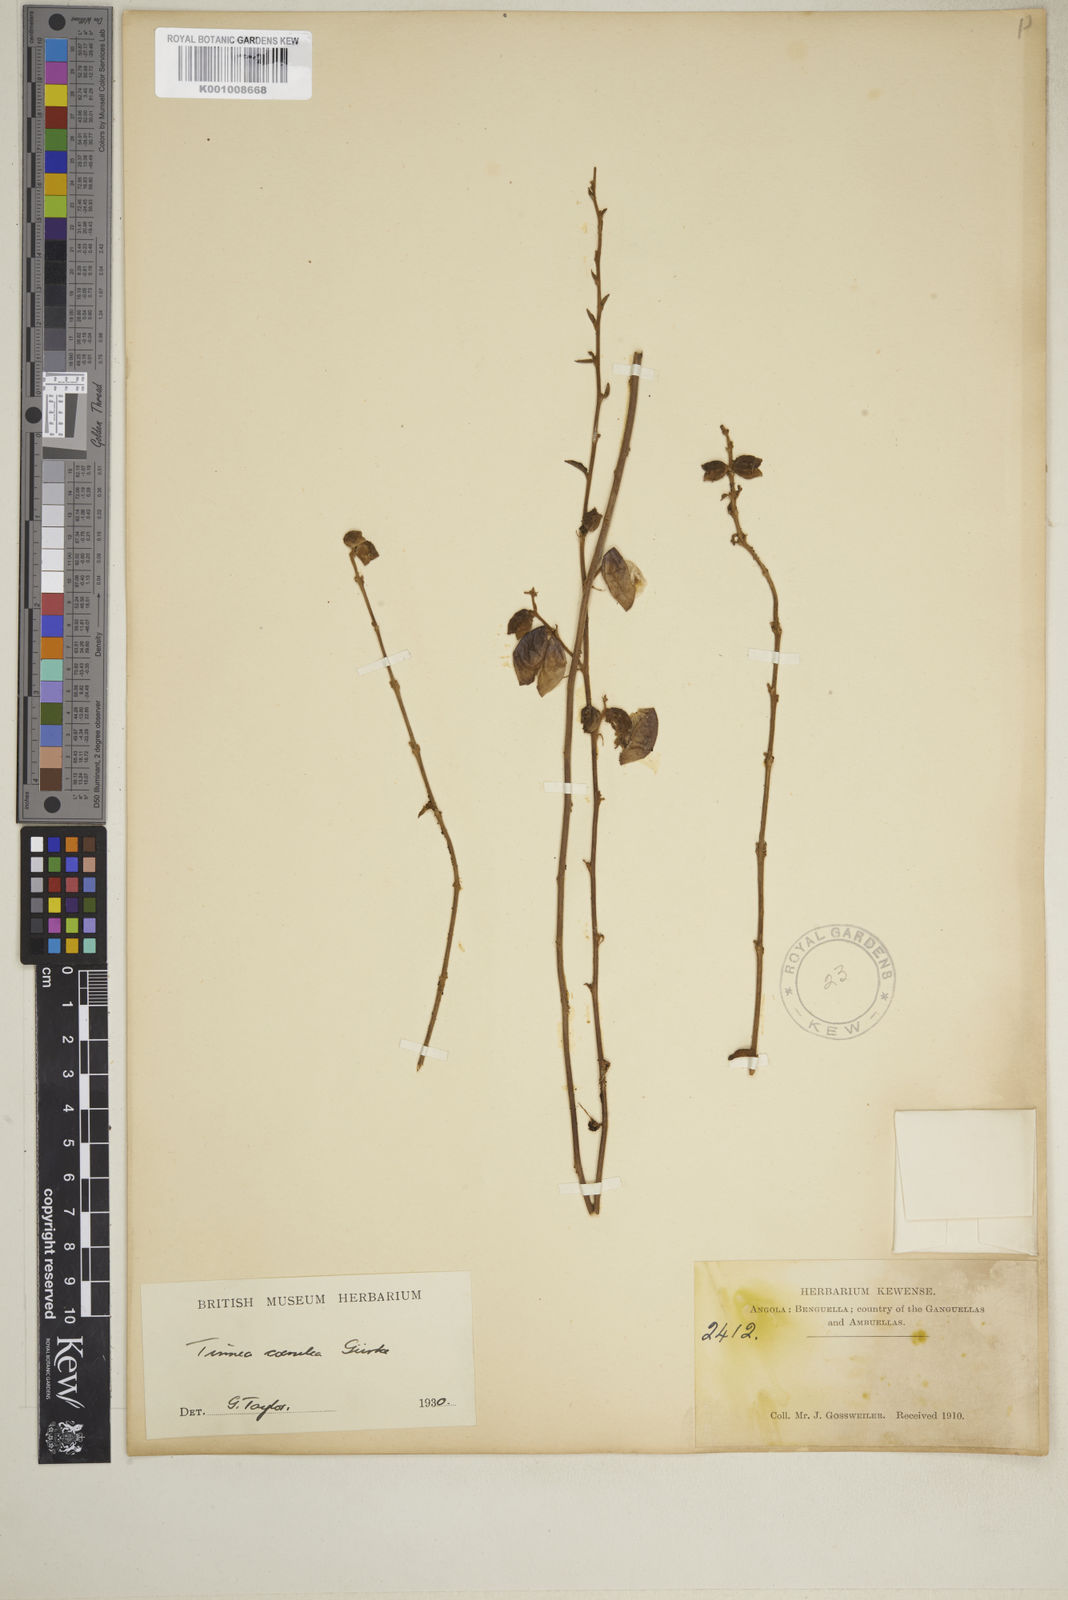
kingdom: Plantae
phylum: Tracheophyta
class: Magnoliopsida
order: Lamiales
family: Lamiaceae
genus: Tinnea
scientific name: Tinnea
